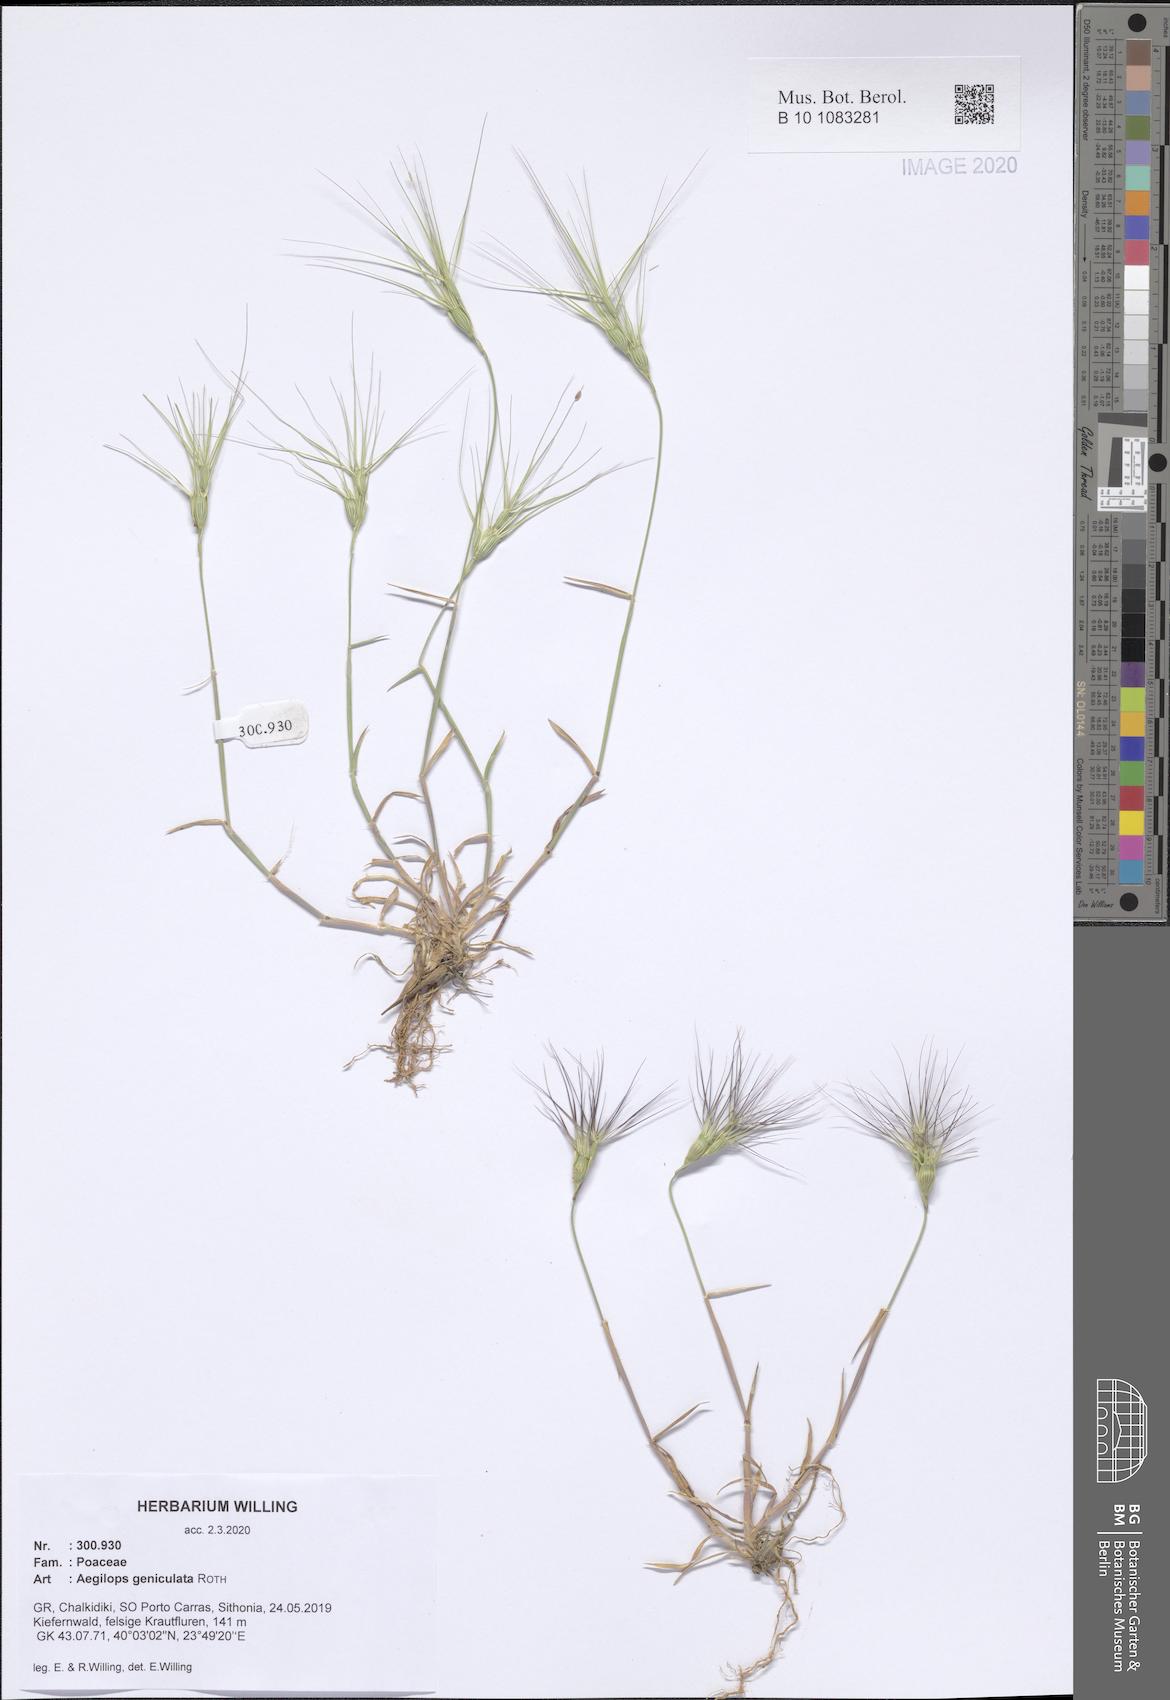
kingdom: Plantae
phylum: Tracheophyta
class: Liliopsida
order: Poales
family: Poaceae
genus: Aegilops
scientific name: Aegilops geniculata
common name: Ovate goat grass
